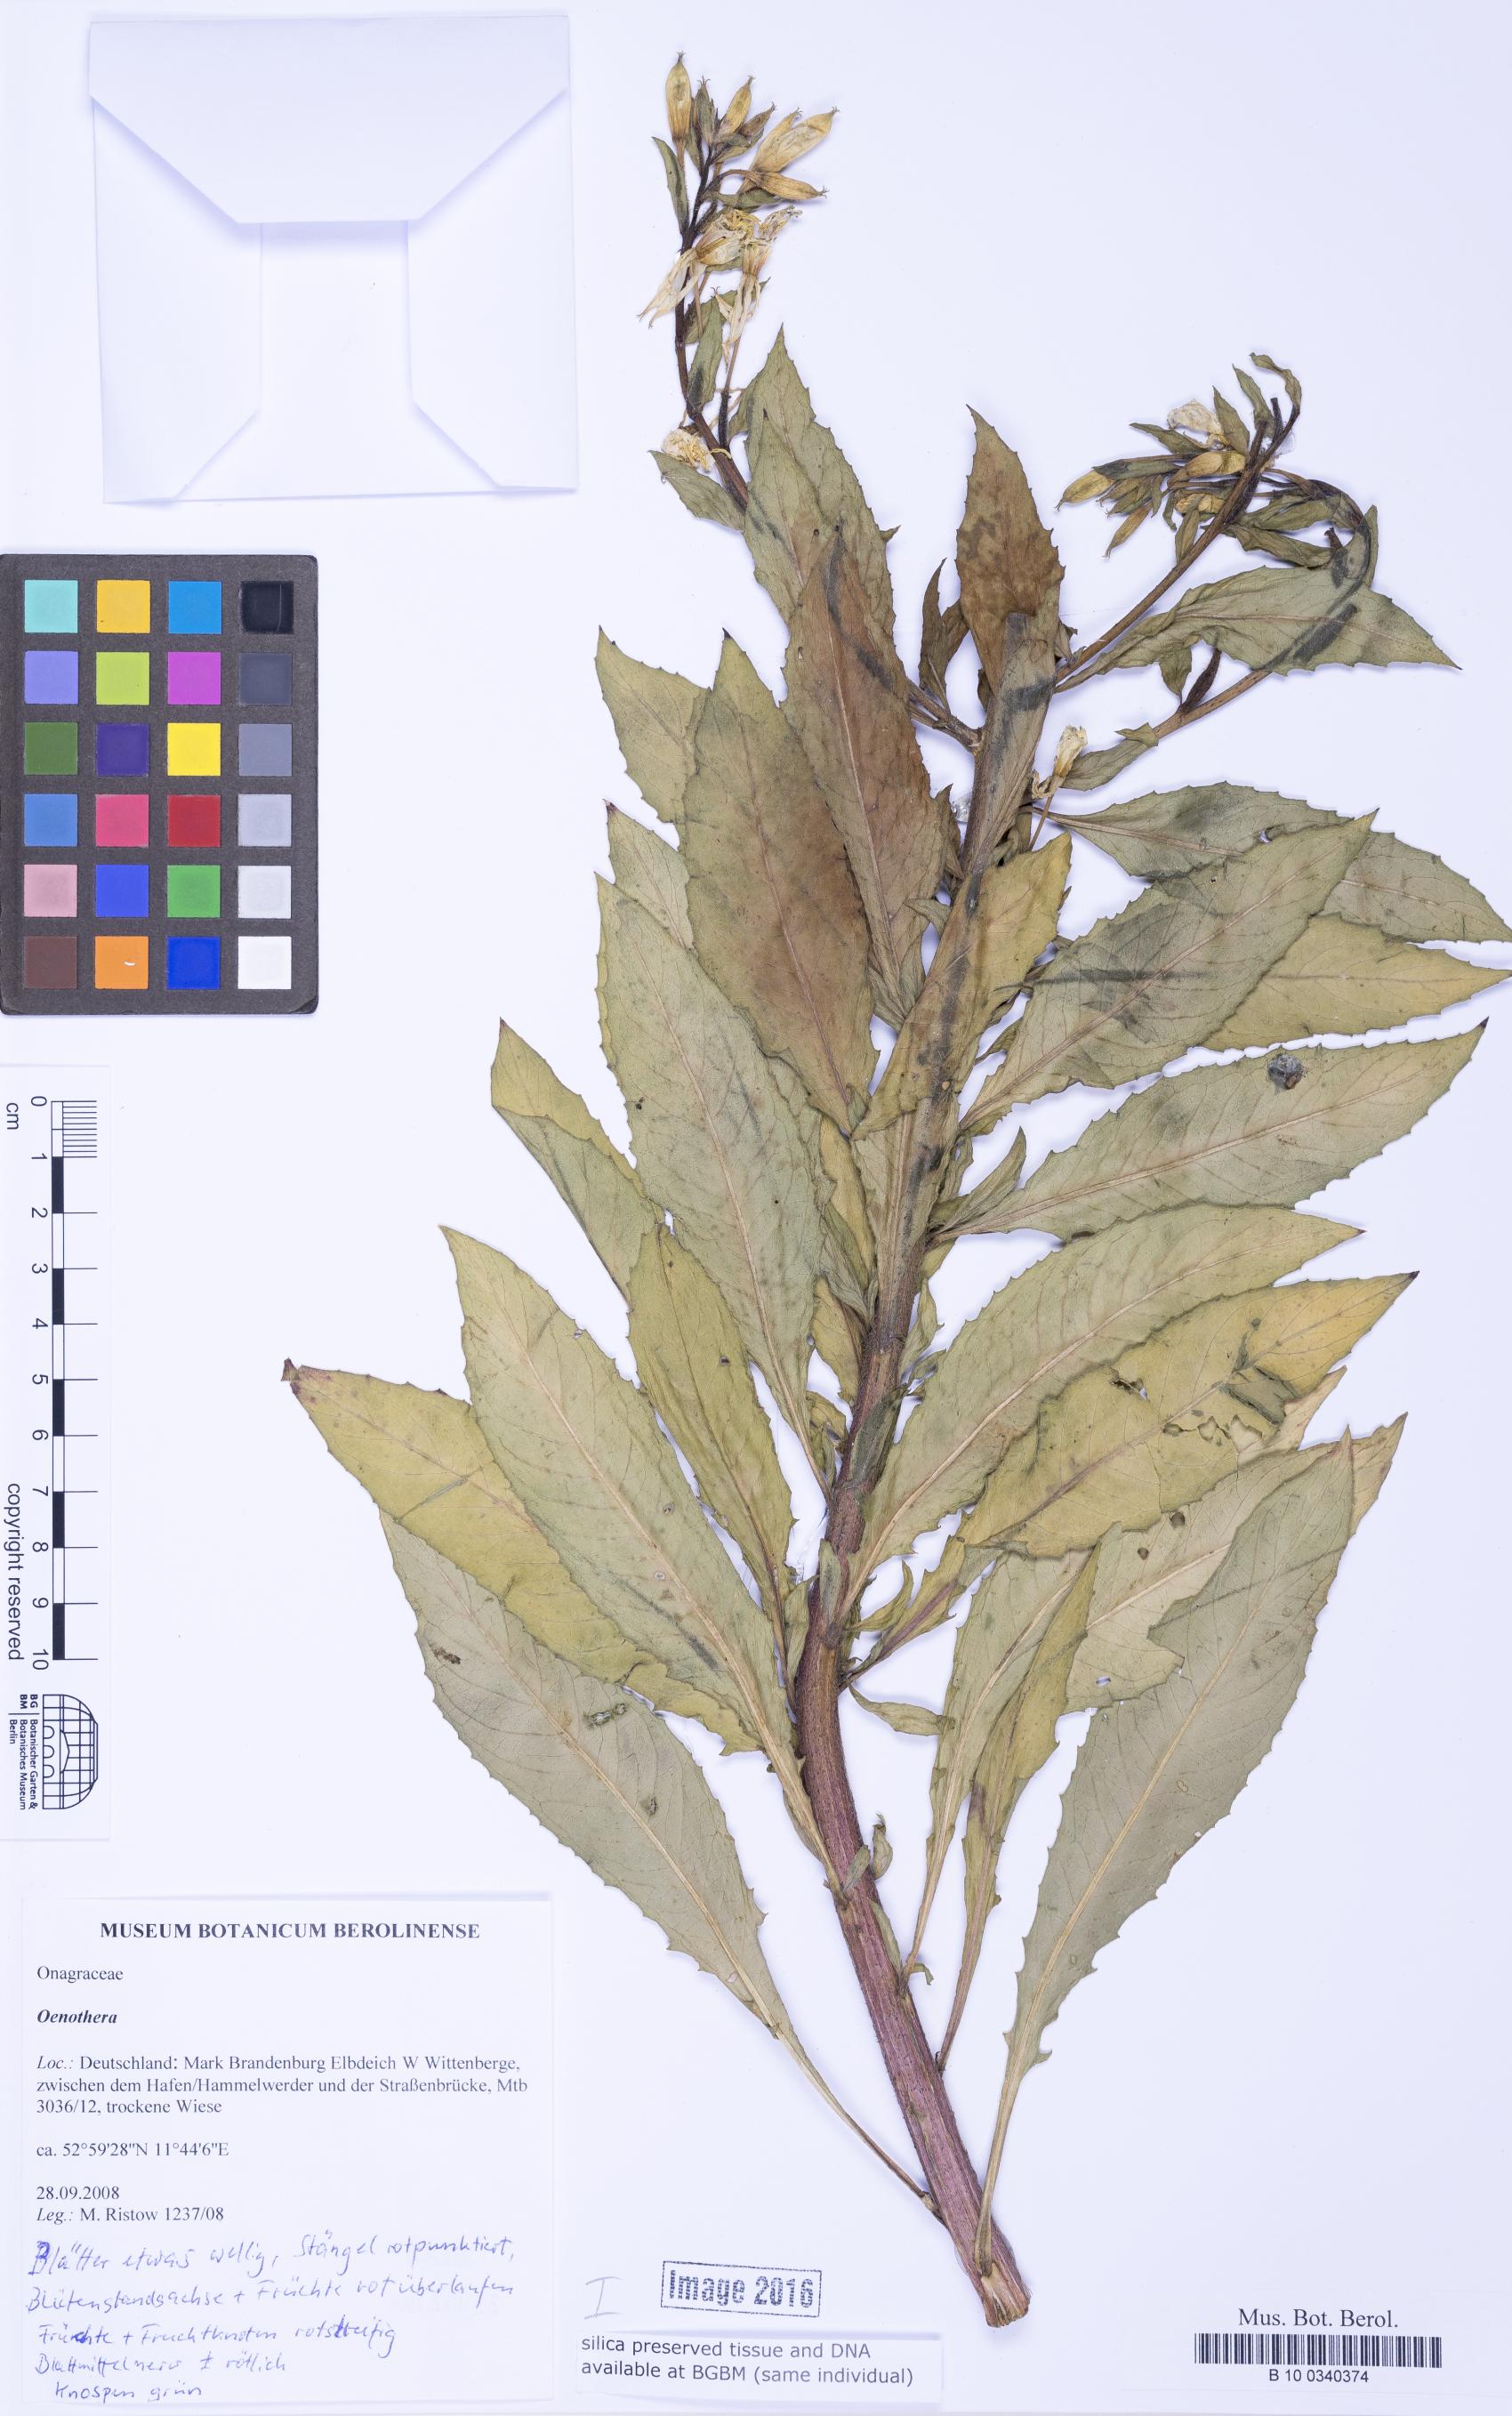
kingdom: Plantae
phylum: Tracheophyta
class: Magnoliopsida
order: Myrtales
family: Onagraceae
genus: Oenothera
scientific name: Oenothera
